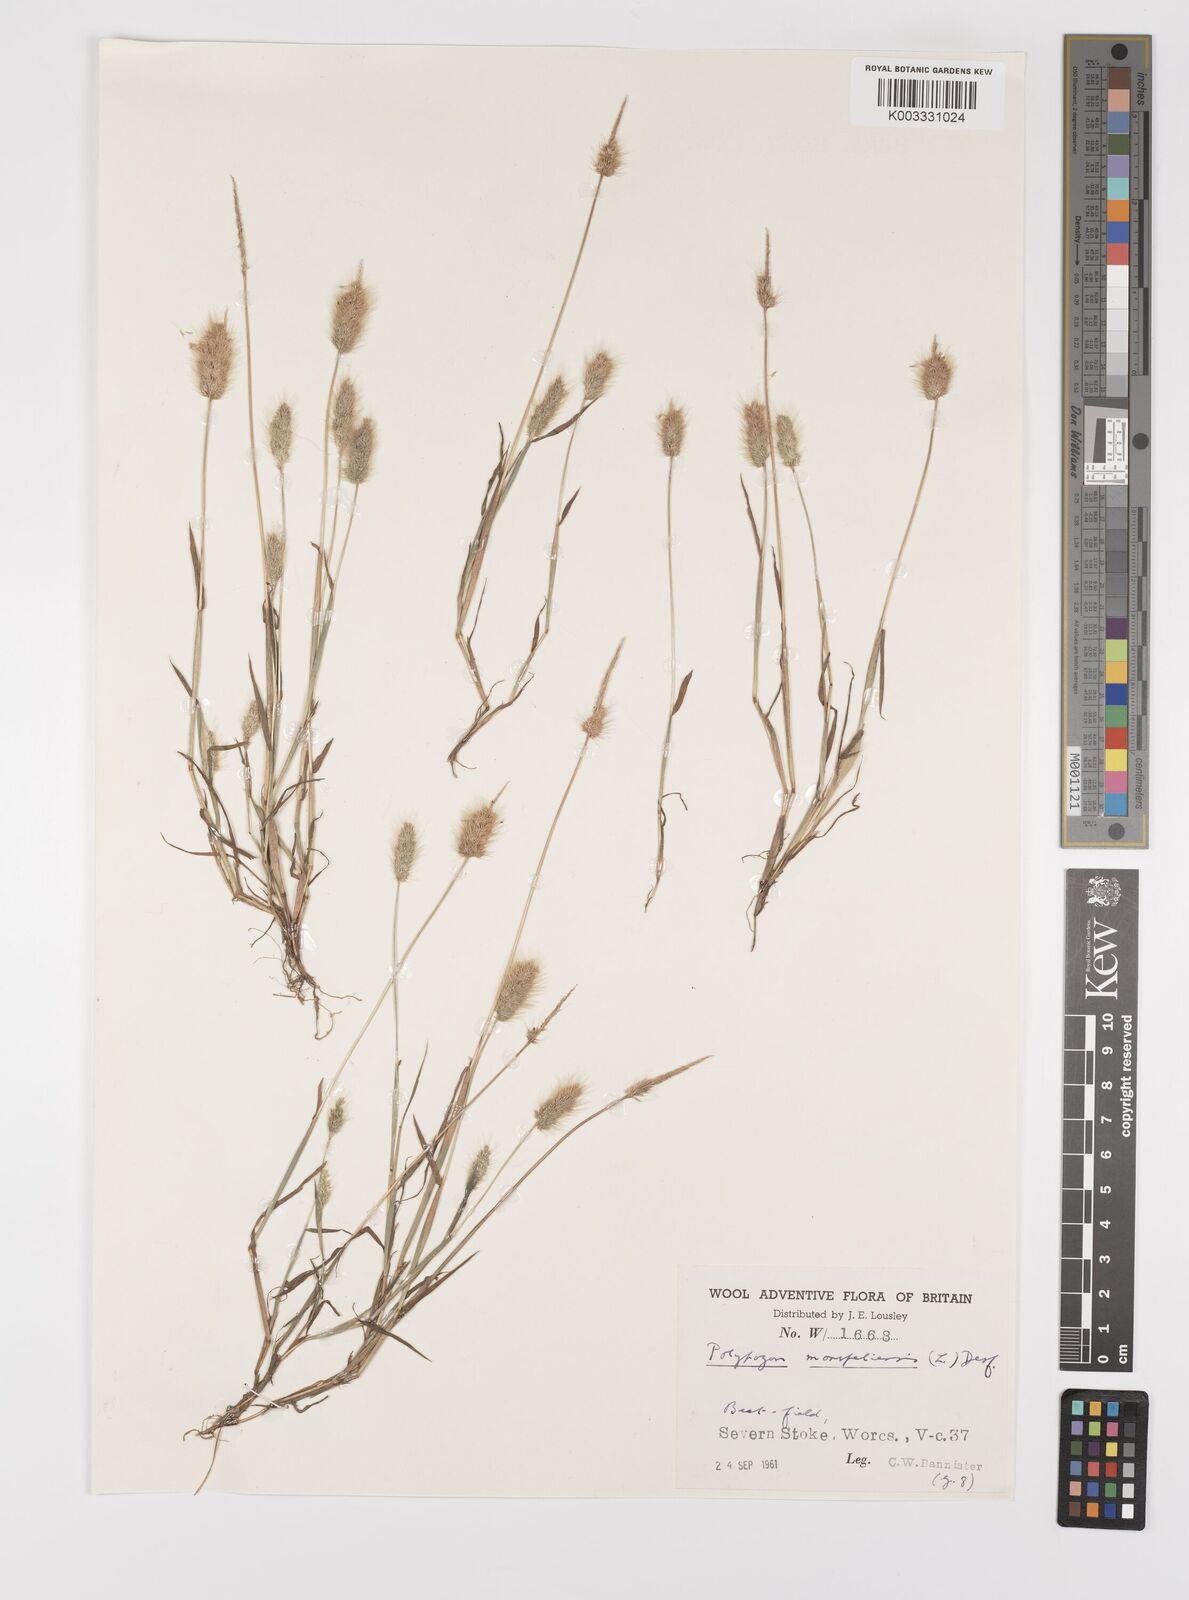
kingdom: Plantae
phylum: Tracheophyta
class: Liliopsida
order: Poales
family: Poaceae
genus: Polypogon
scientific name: Polypogon monspeliensis
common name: Annual rabbitsfoot grass
